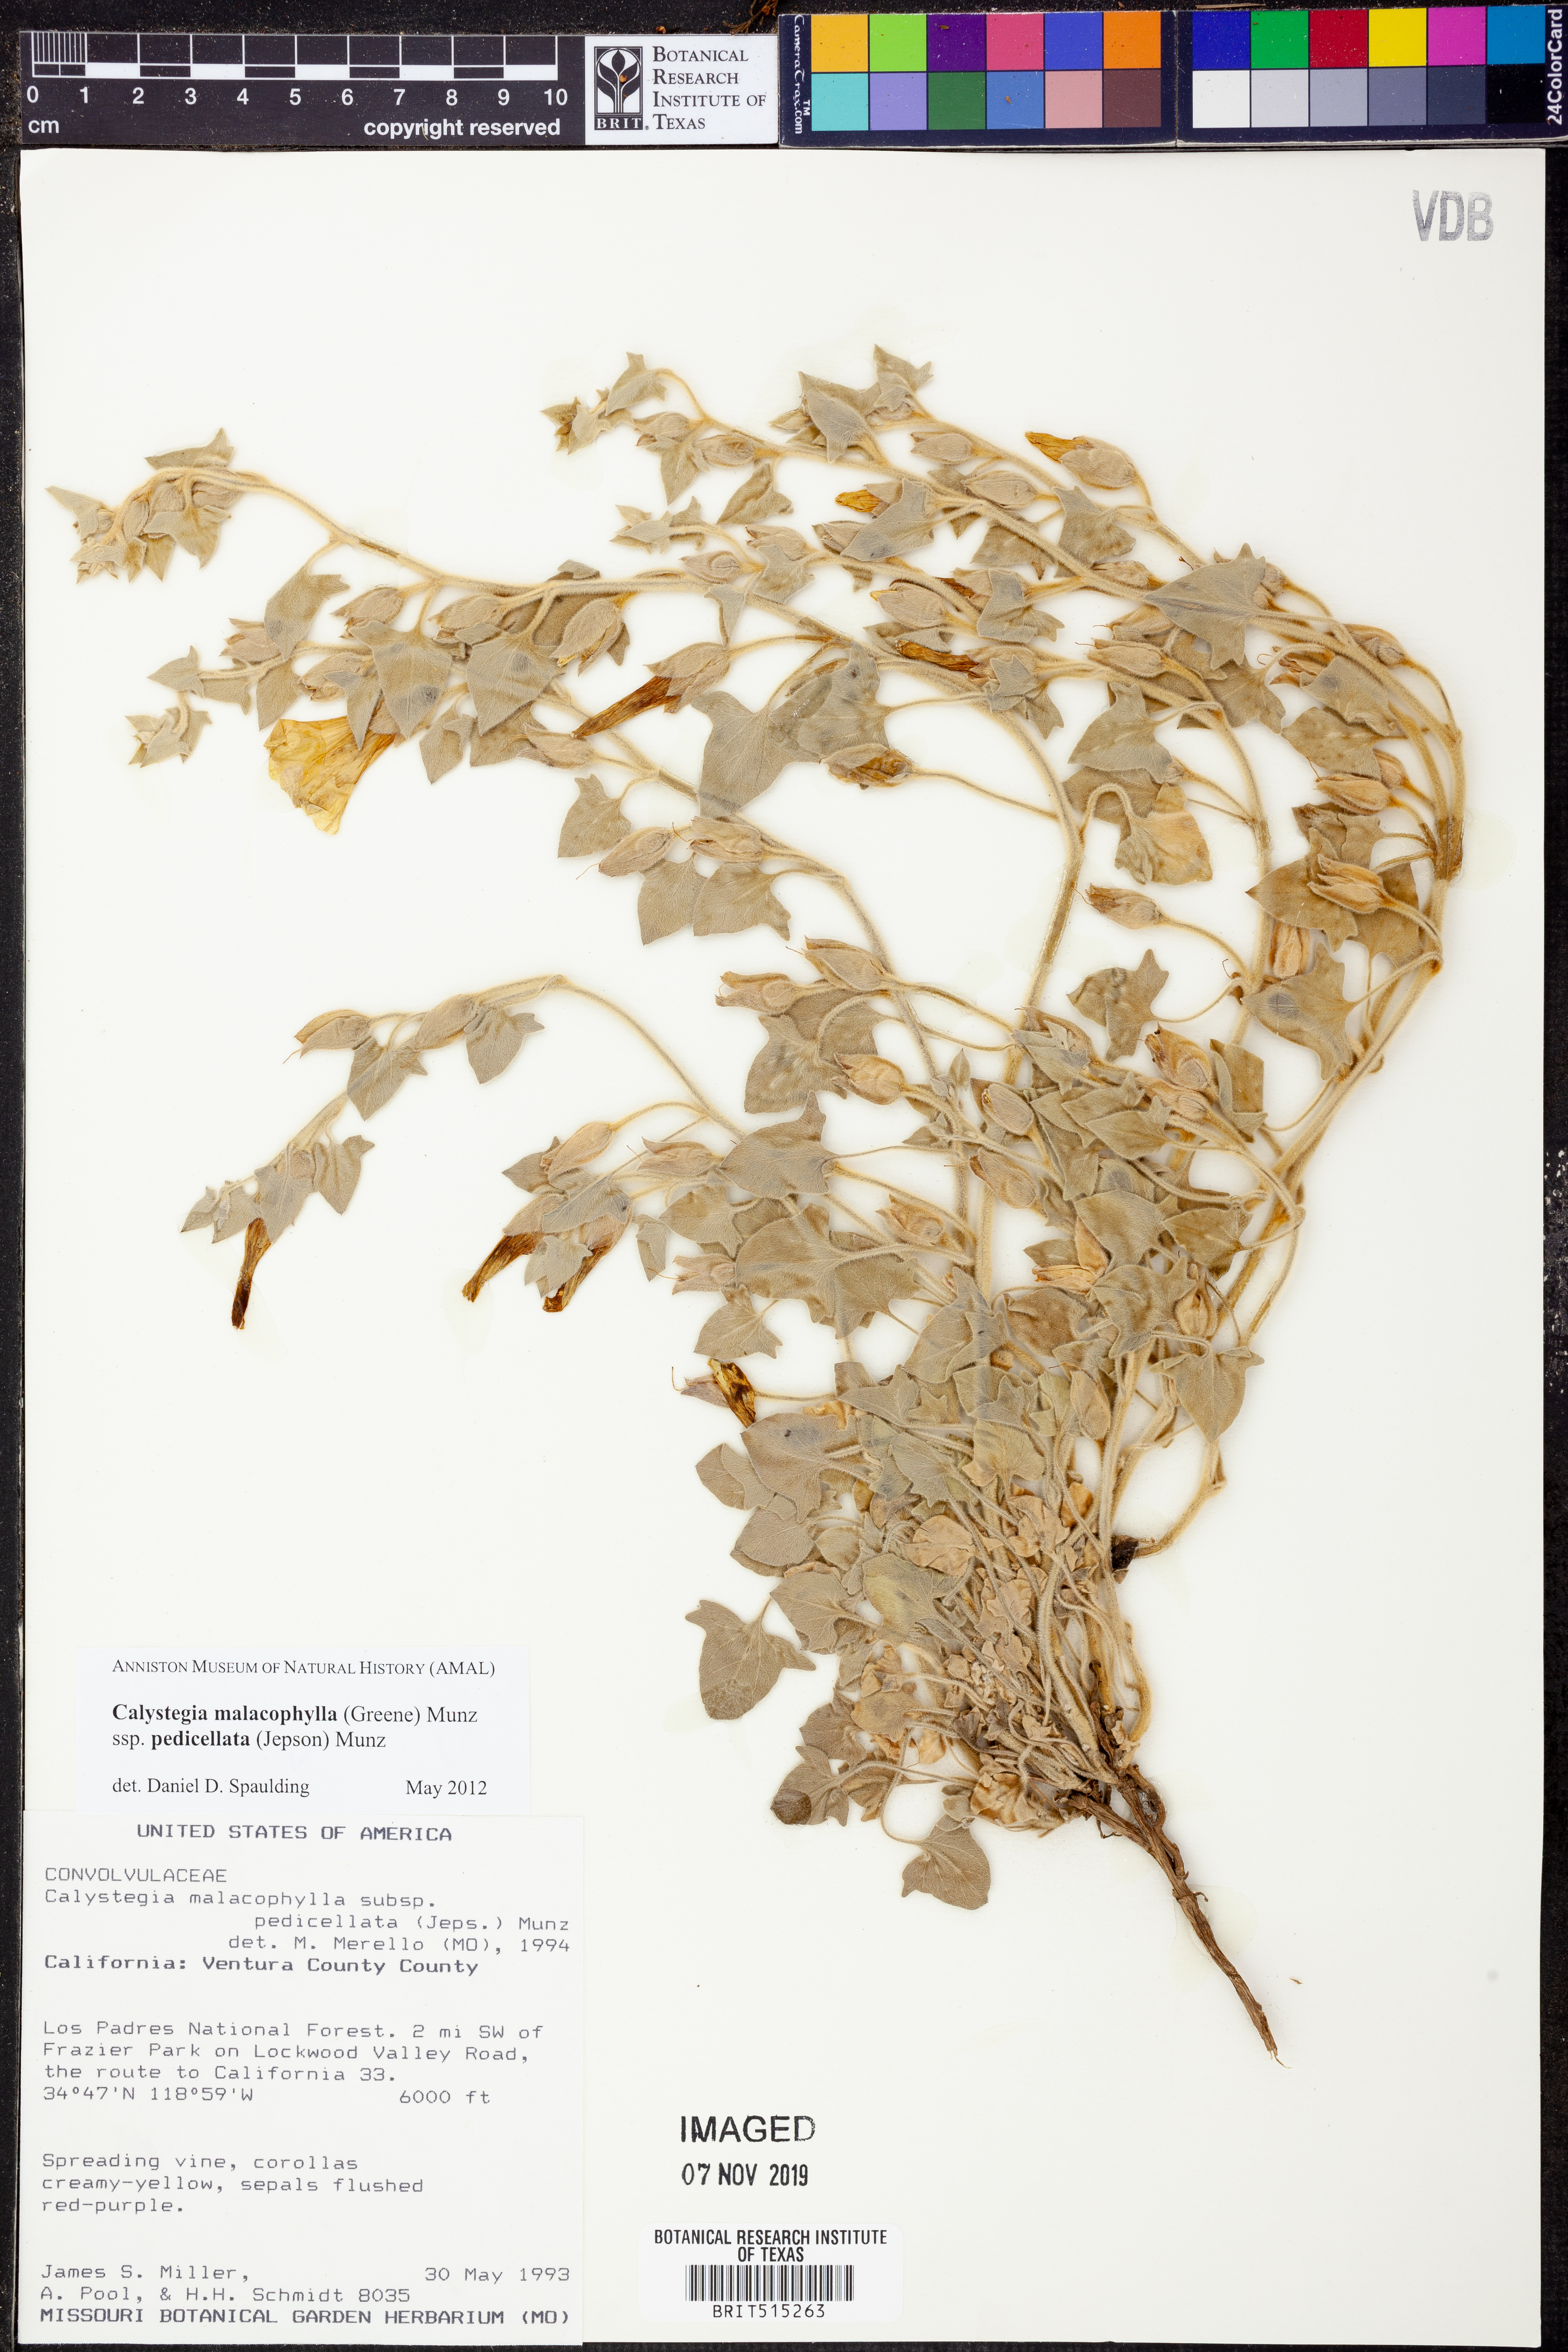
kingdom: Plantae
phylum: Tracheophyta
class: Magnoliopsida
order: Solanales
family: Convolvulaceae
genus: Calystegia
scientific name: Calystegia malacophylla
